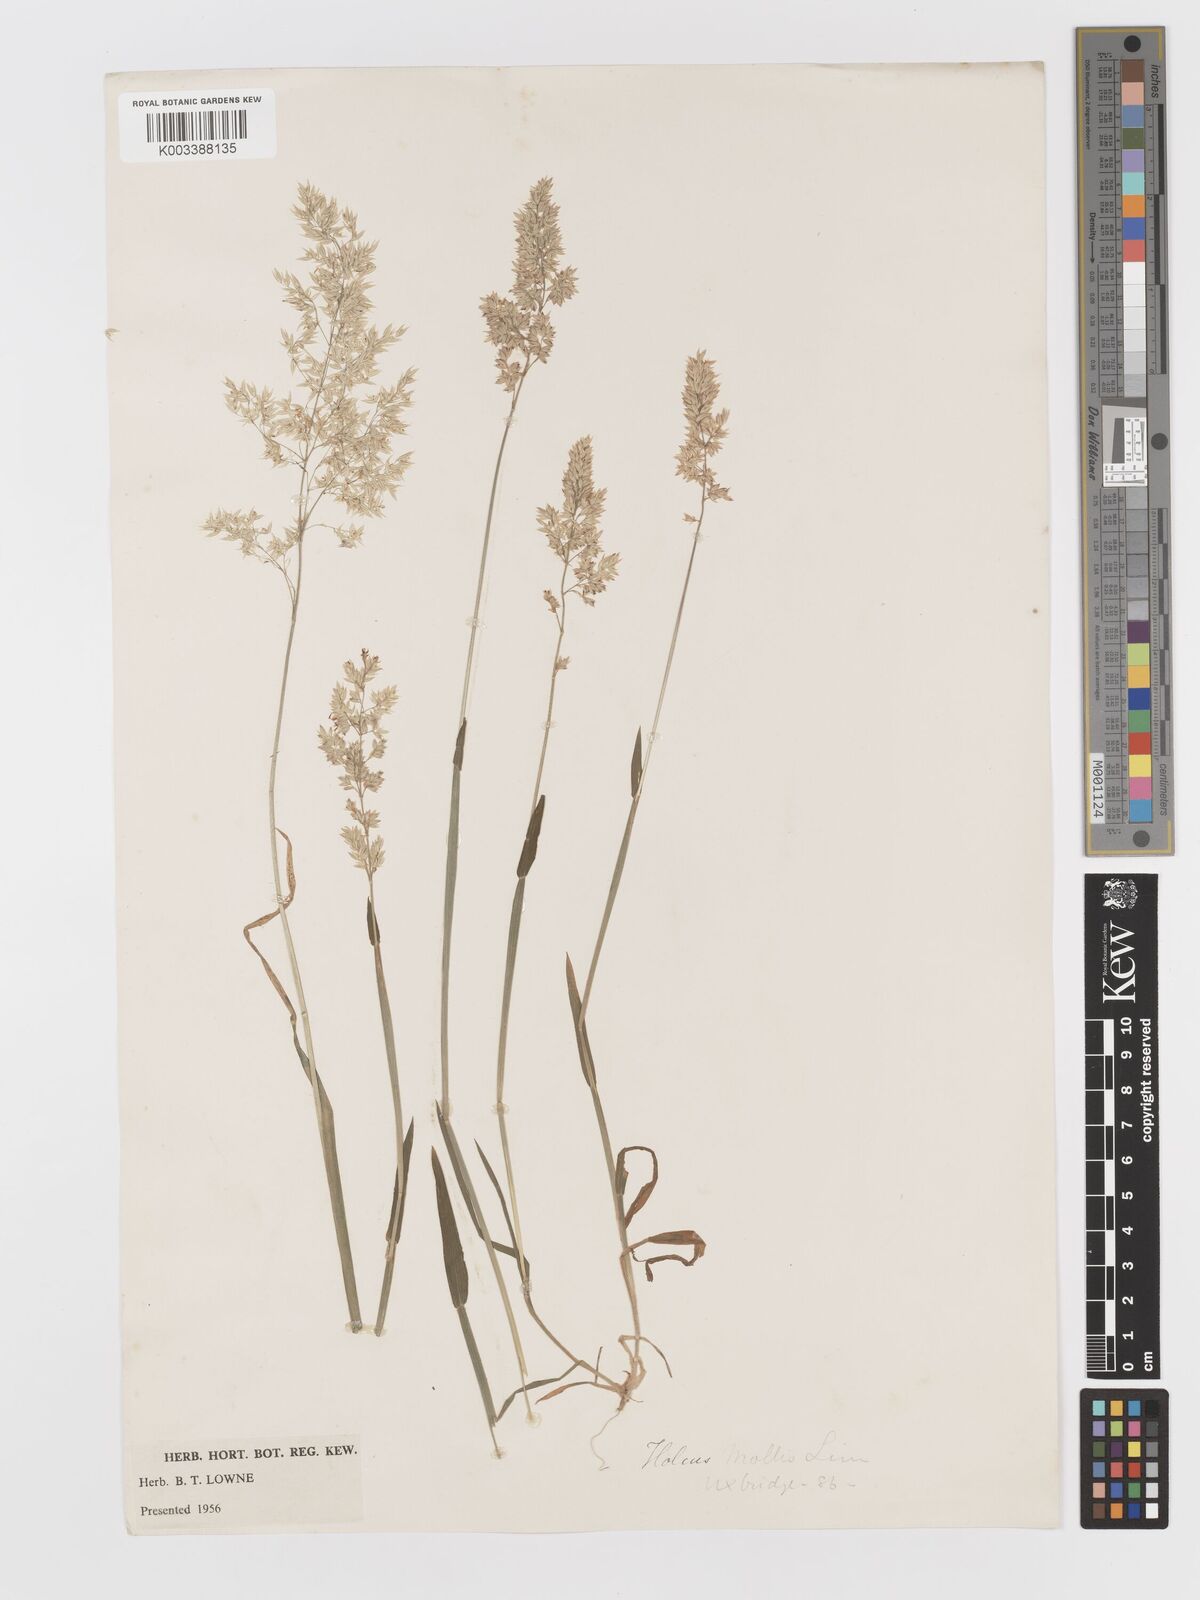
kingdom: Plantae
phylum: Tracheophyta
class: Liliopsida
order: Poales
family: Poaceae
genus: Holcus
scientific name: Holcus mollis
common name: Creeping velvetgrass
